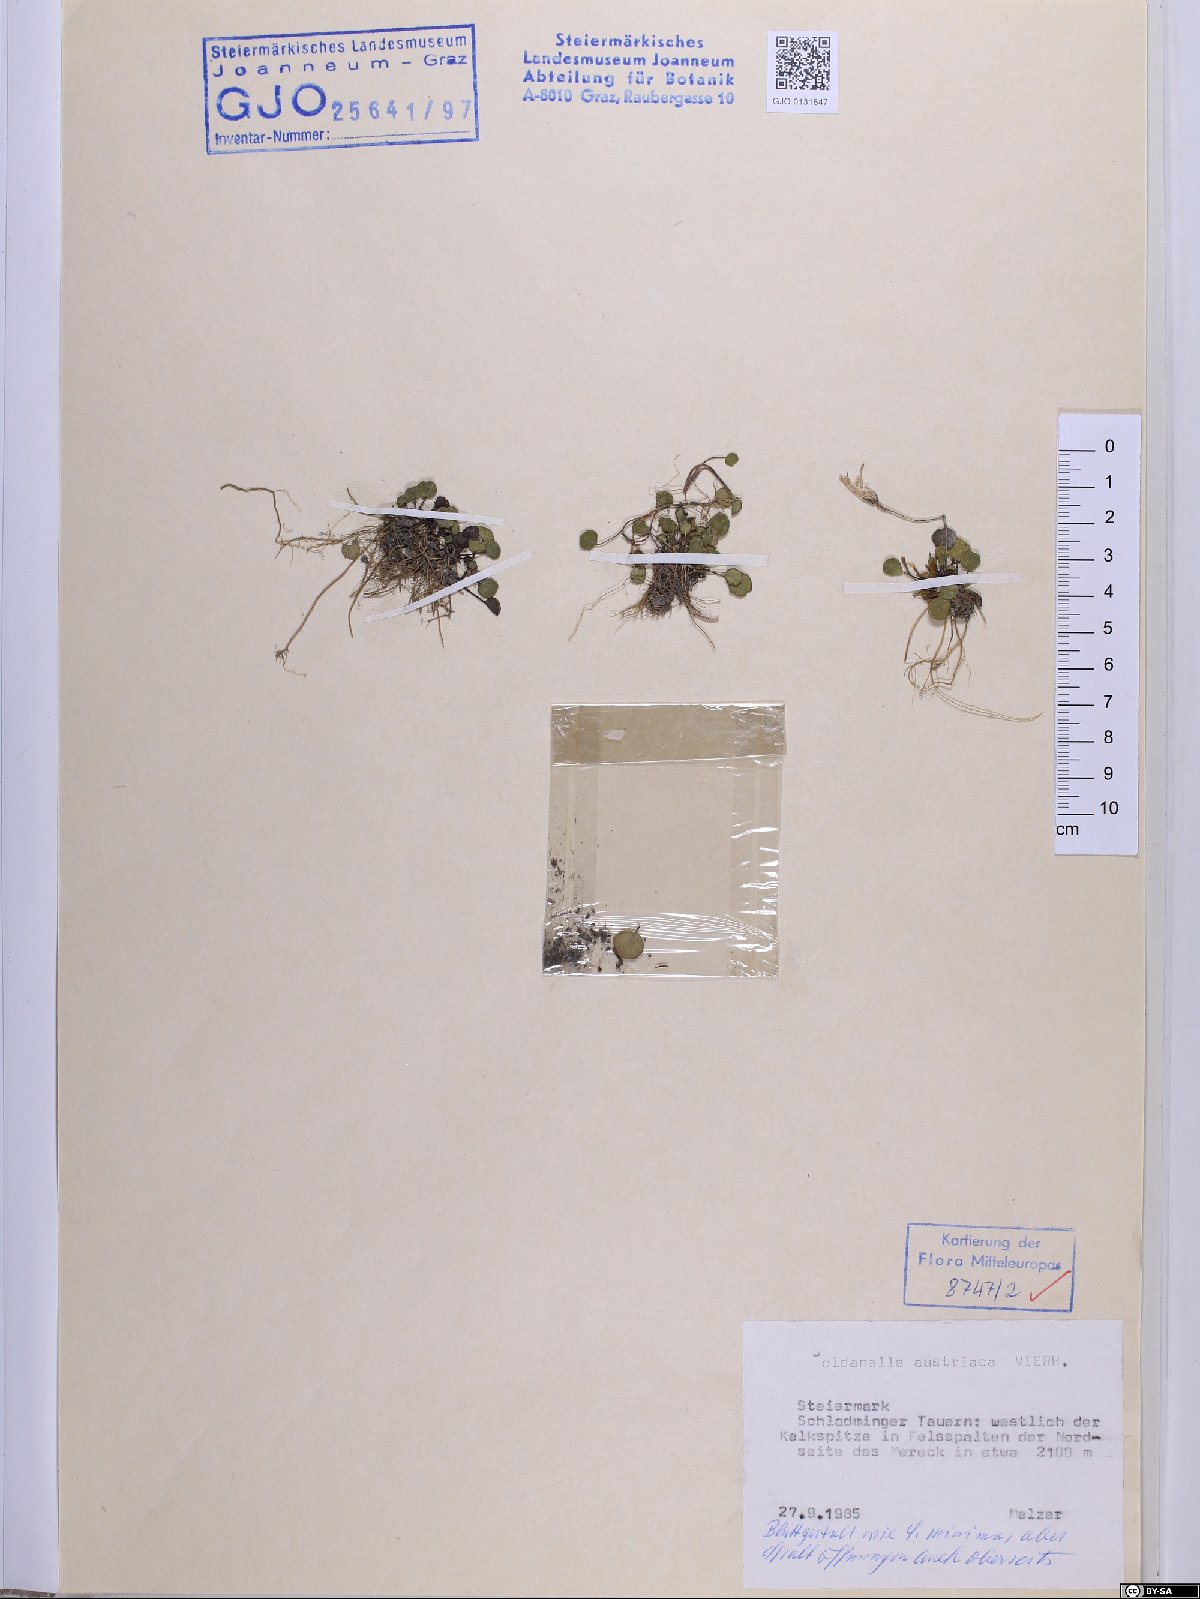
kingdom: Plantae
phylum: Tracheophyta
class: Magnoliopsida
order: Ericales
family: Primulaceae
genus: Soldanella
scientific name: Soldanella austriaca
